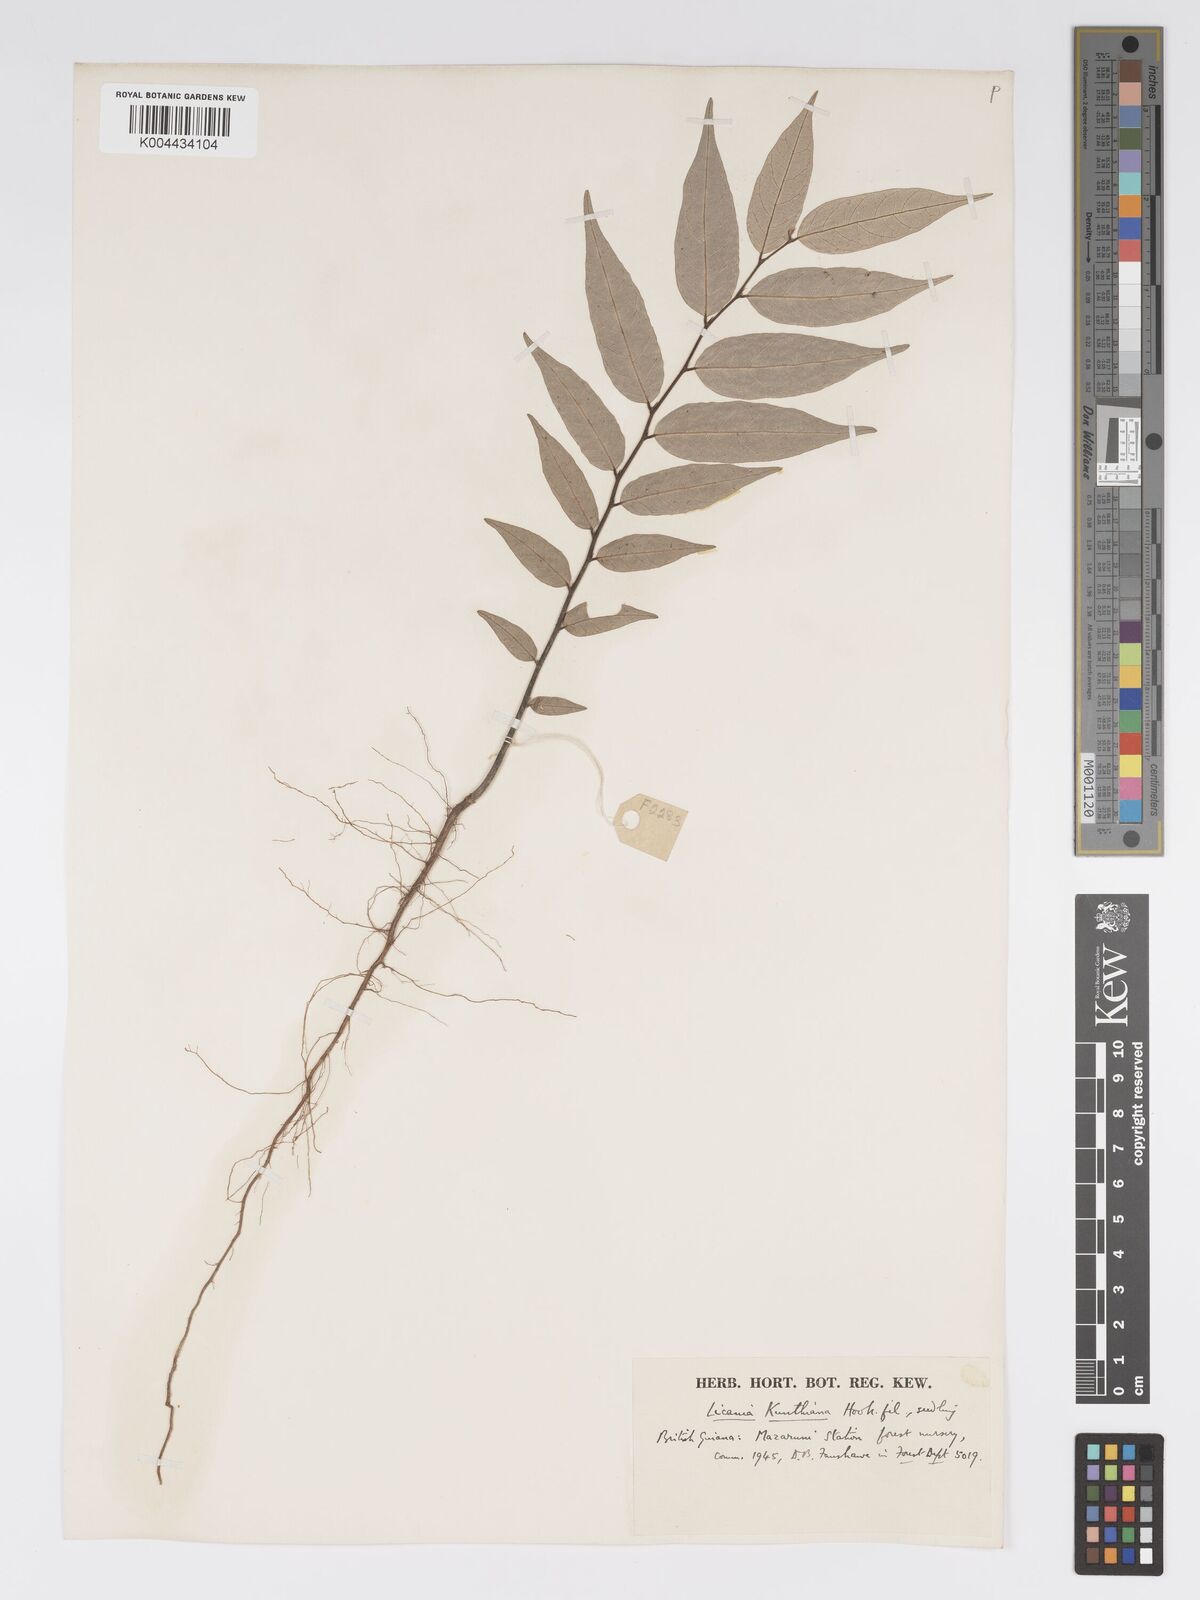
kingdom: Plantae
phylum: Tracheophyta
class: Magnoliopsida
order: Malpighiales
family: Chrysobalanaceae
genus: Licania
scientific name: Licania kunthiana
